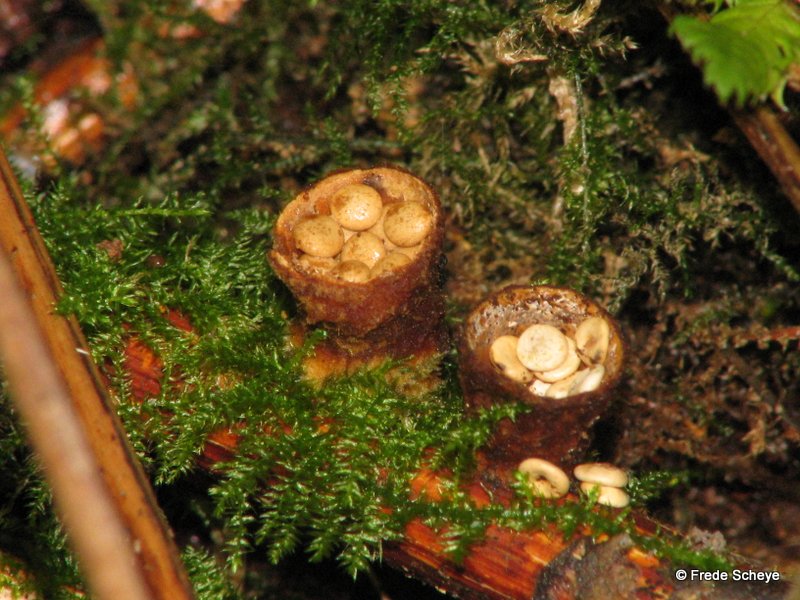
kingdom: Fungi
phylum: Basidiomycota
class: Agaricomycetes
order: Agaricales
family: Nidulariaceae
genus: Crucibulum
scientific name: Crucibulum crucibuliforme
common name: krukkesvamp
